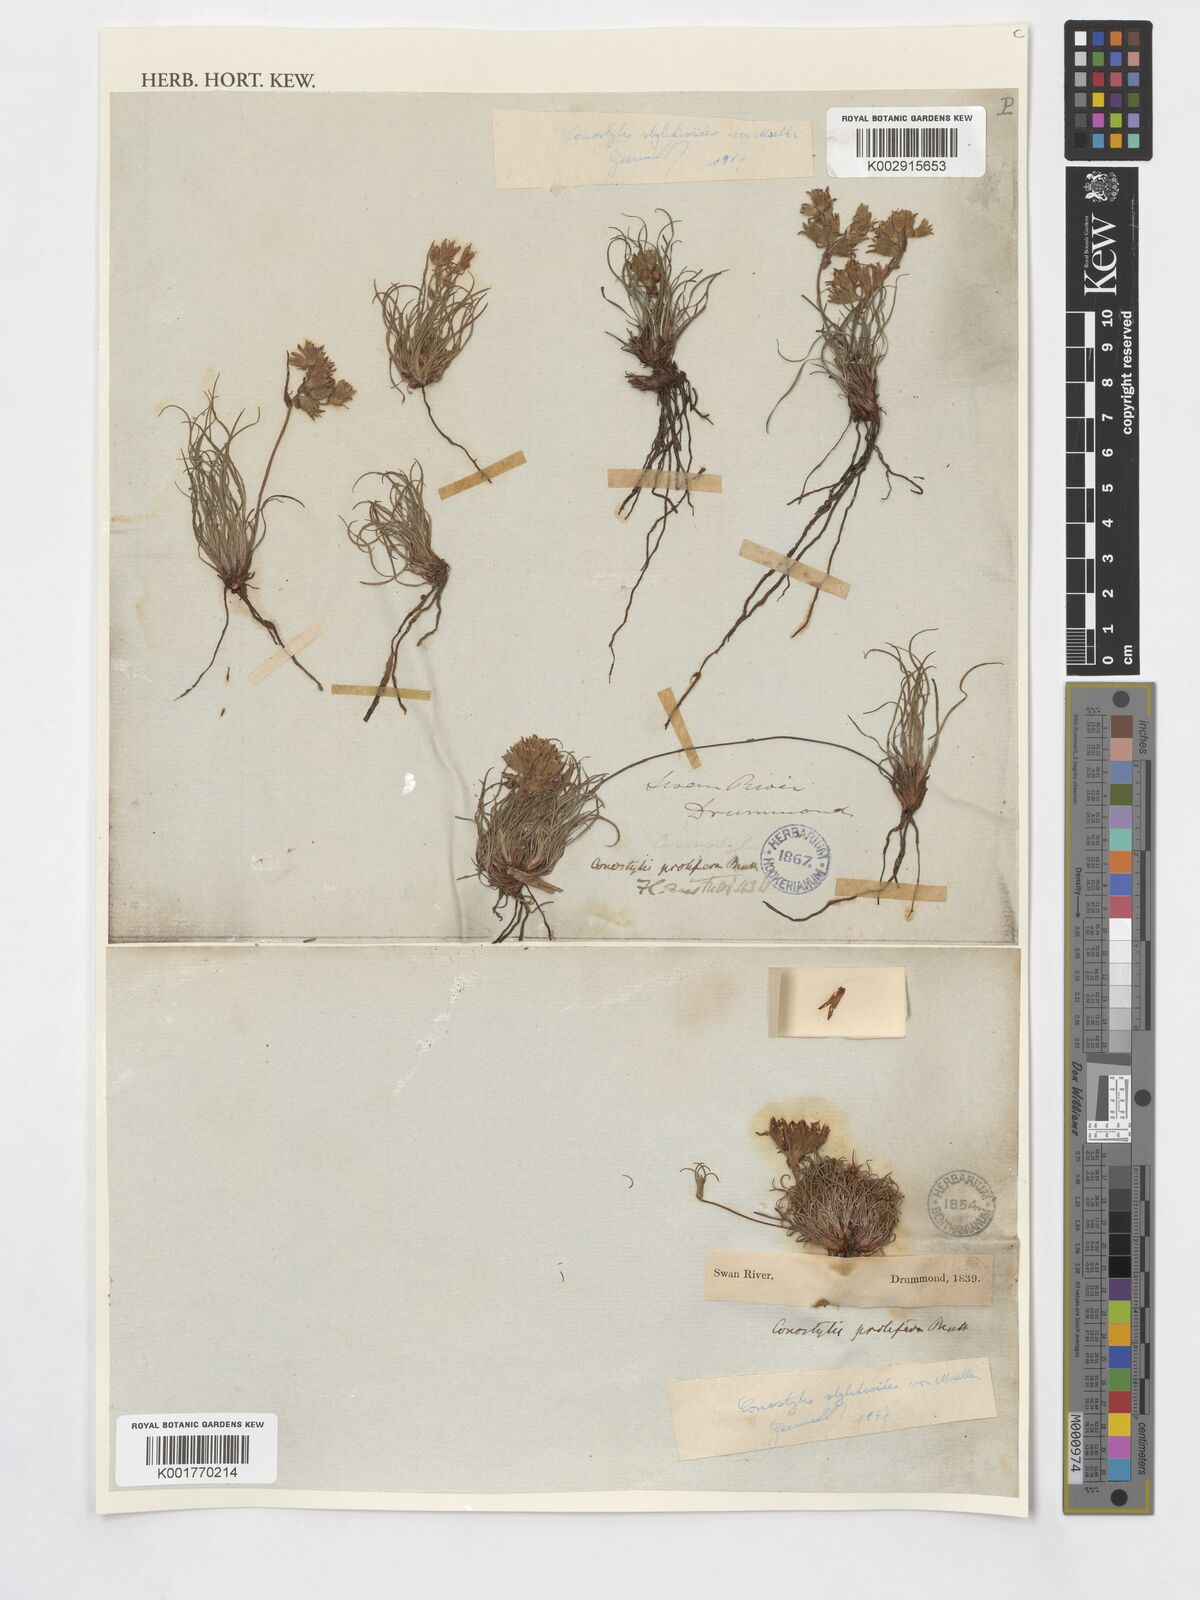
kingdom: Plantae
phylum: Tracheophyta
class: Liliopsida
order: Commelinales
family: Haemodoraceae
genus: Conostylis
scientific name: Conostylis stylidioides
